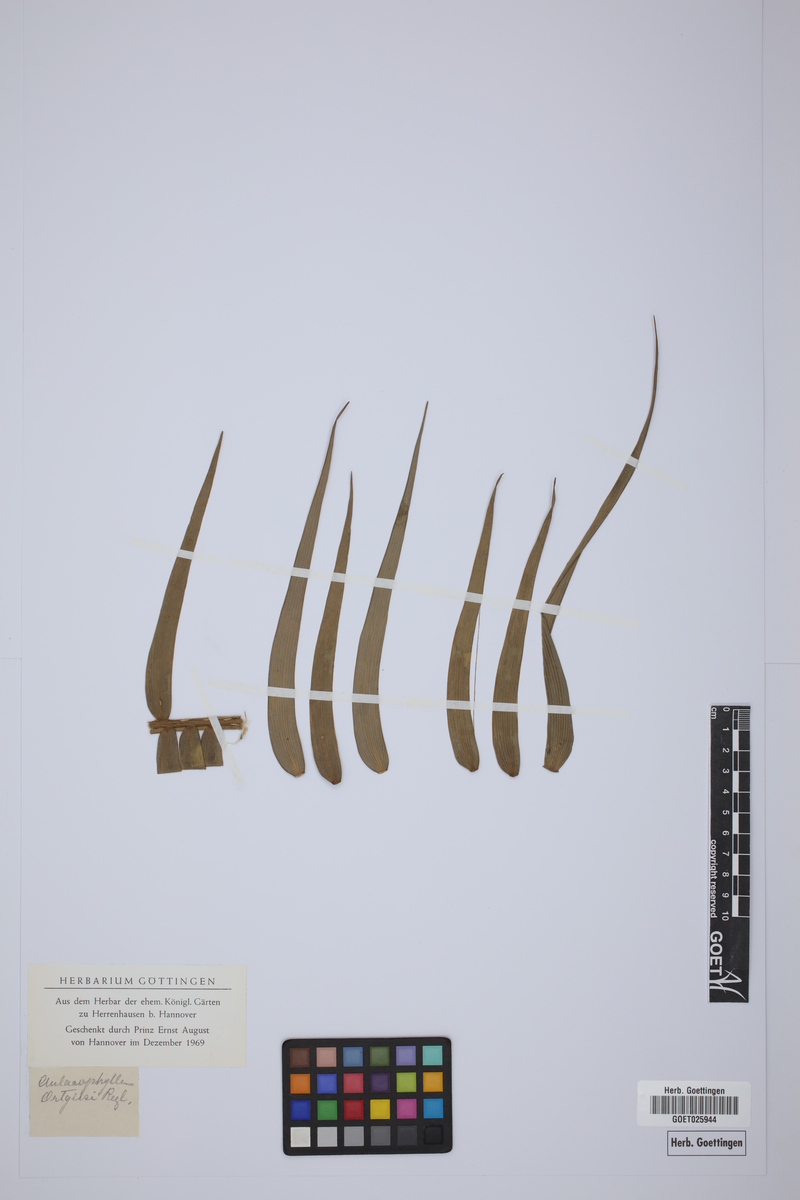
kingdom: Plantae
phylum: Tracheophyta
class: Cycadopsida
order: Cycadales
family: Zamiaceae
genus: Zamia
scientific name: Zamia chigua
